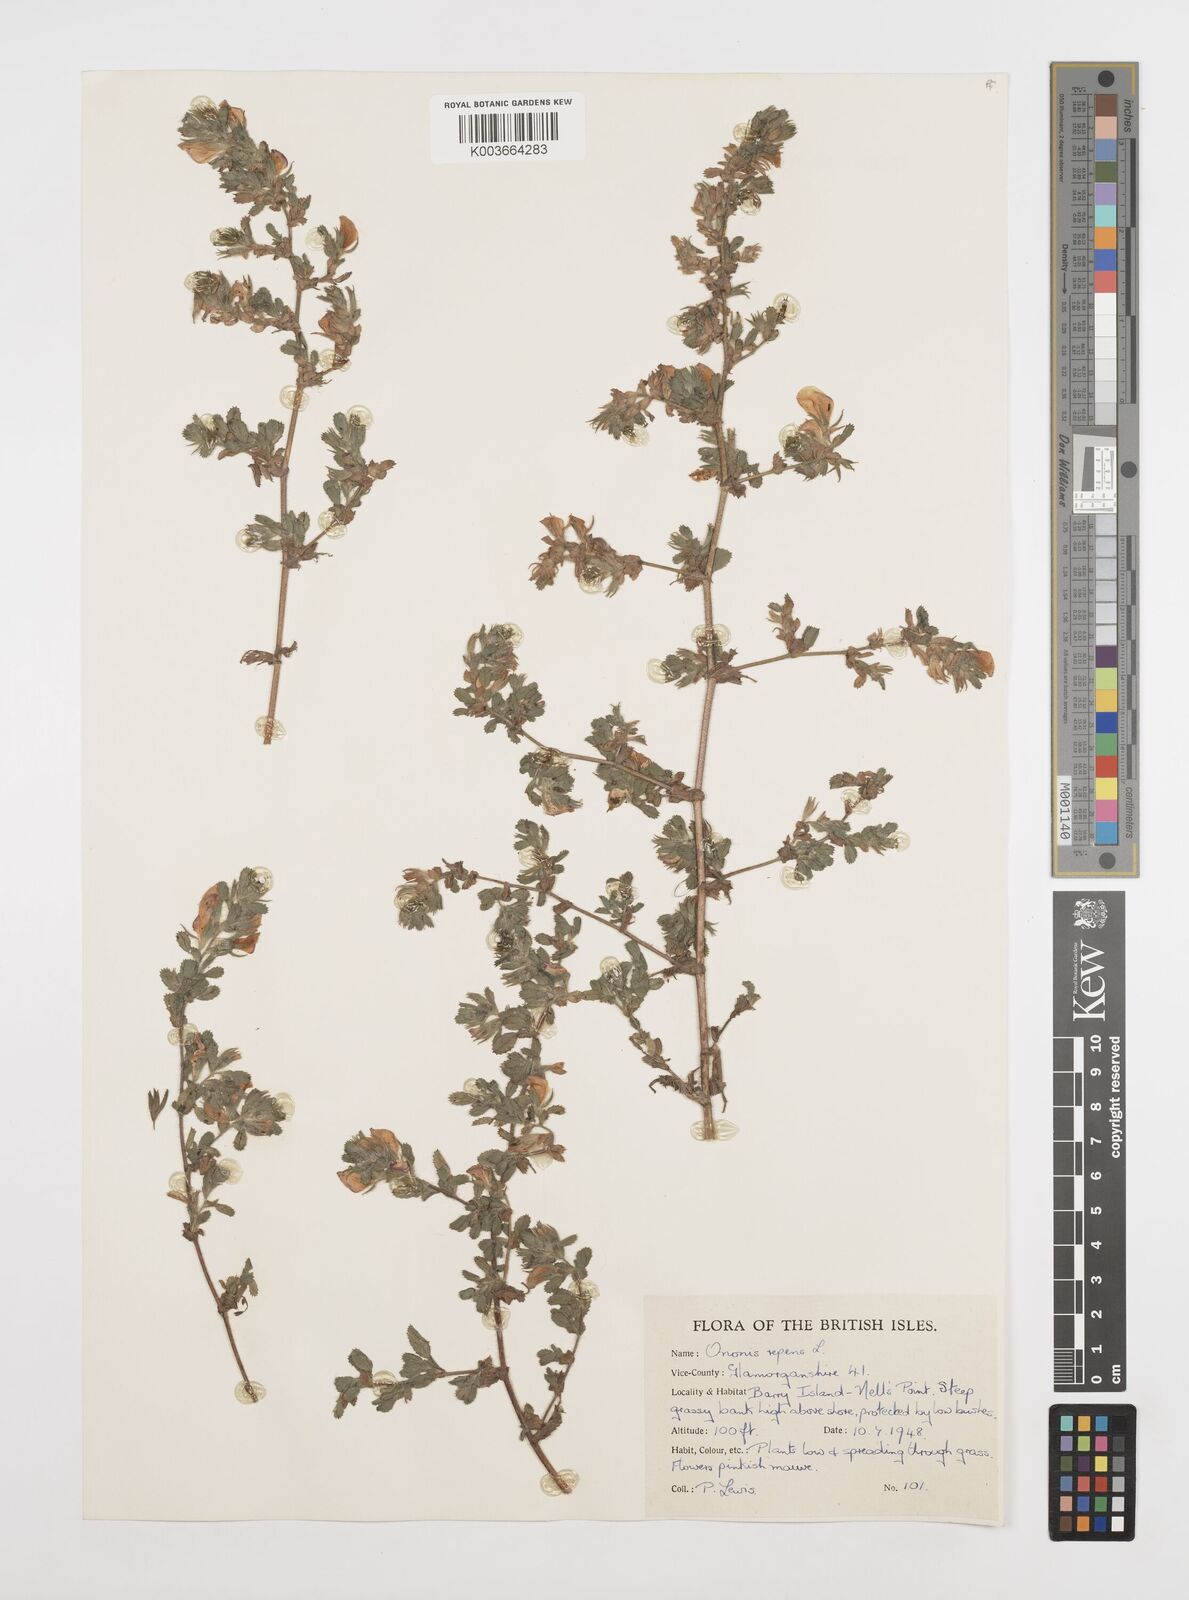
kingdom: Plantae
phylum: Tracheophyta
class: Magnoliopsida
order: Fabales
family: Fabaceae
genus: Ononis
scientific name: Ononis spinosa
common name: Spiny restharrow
